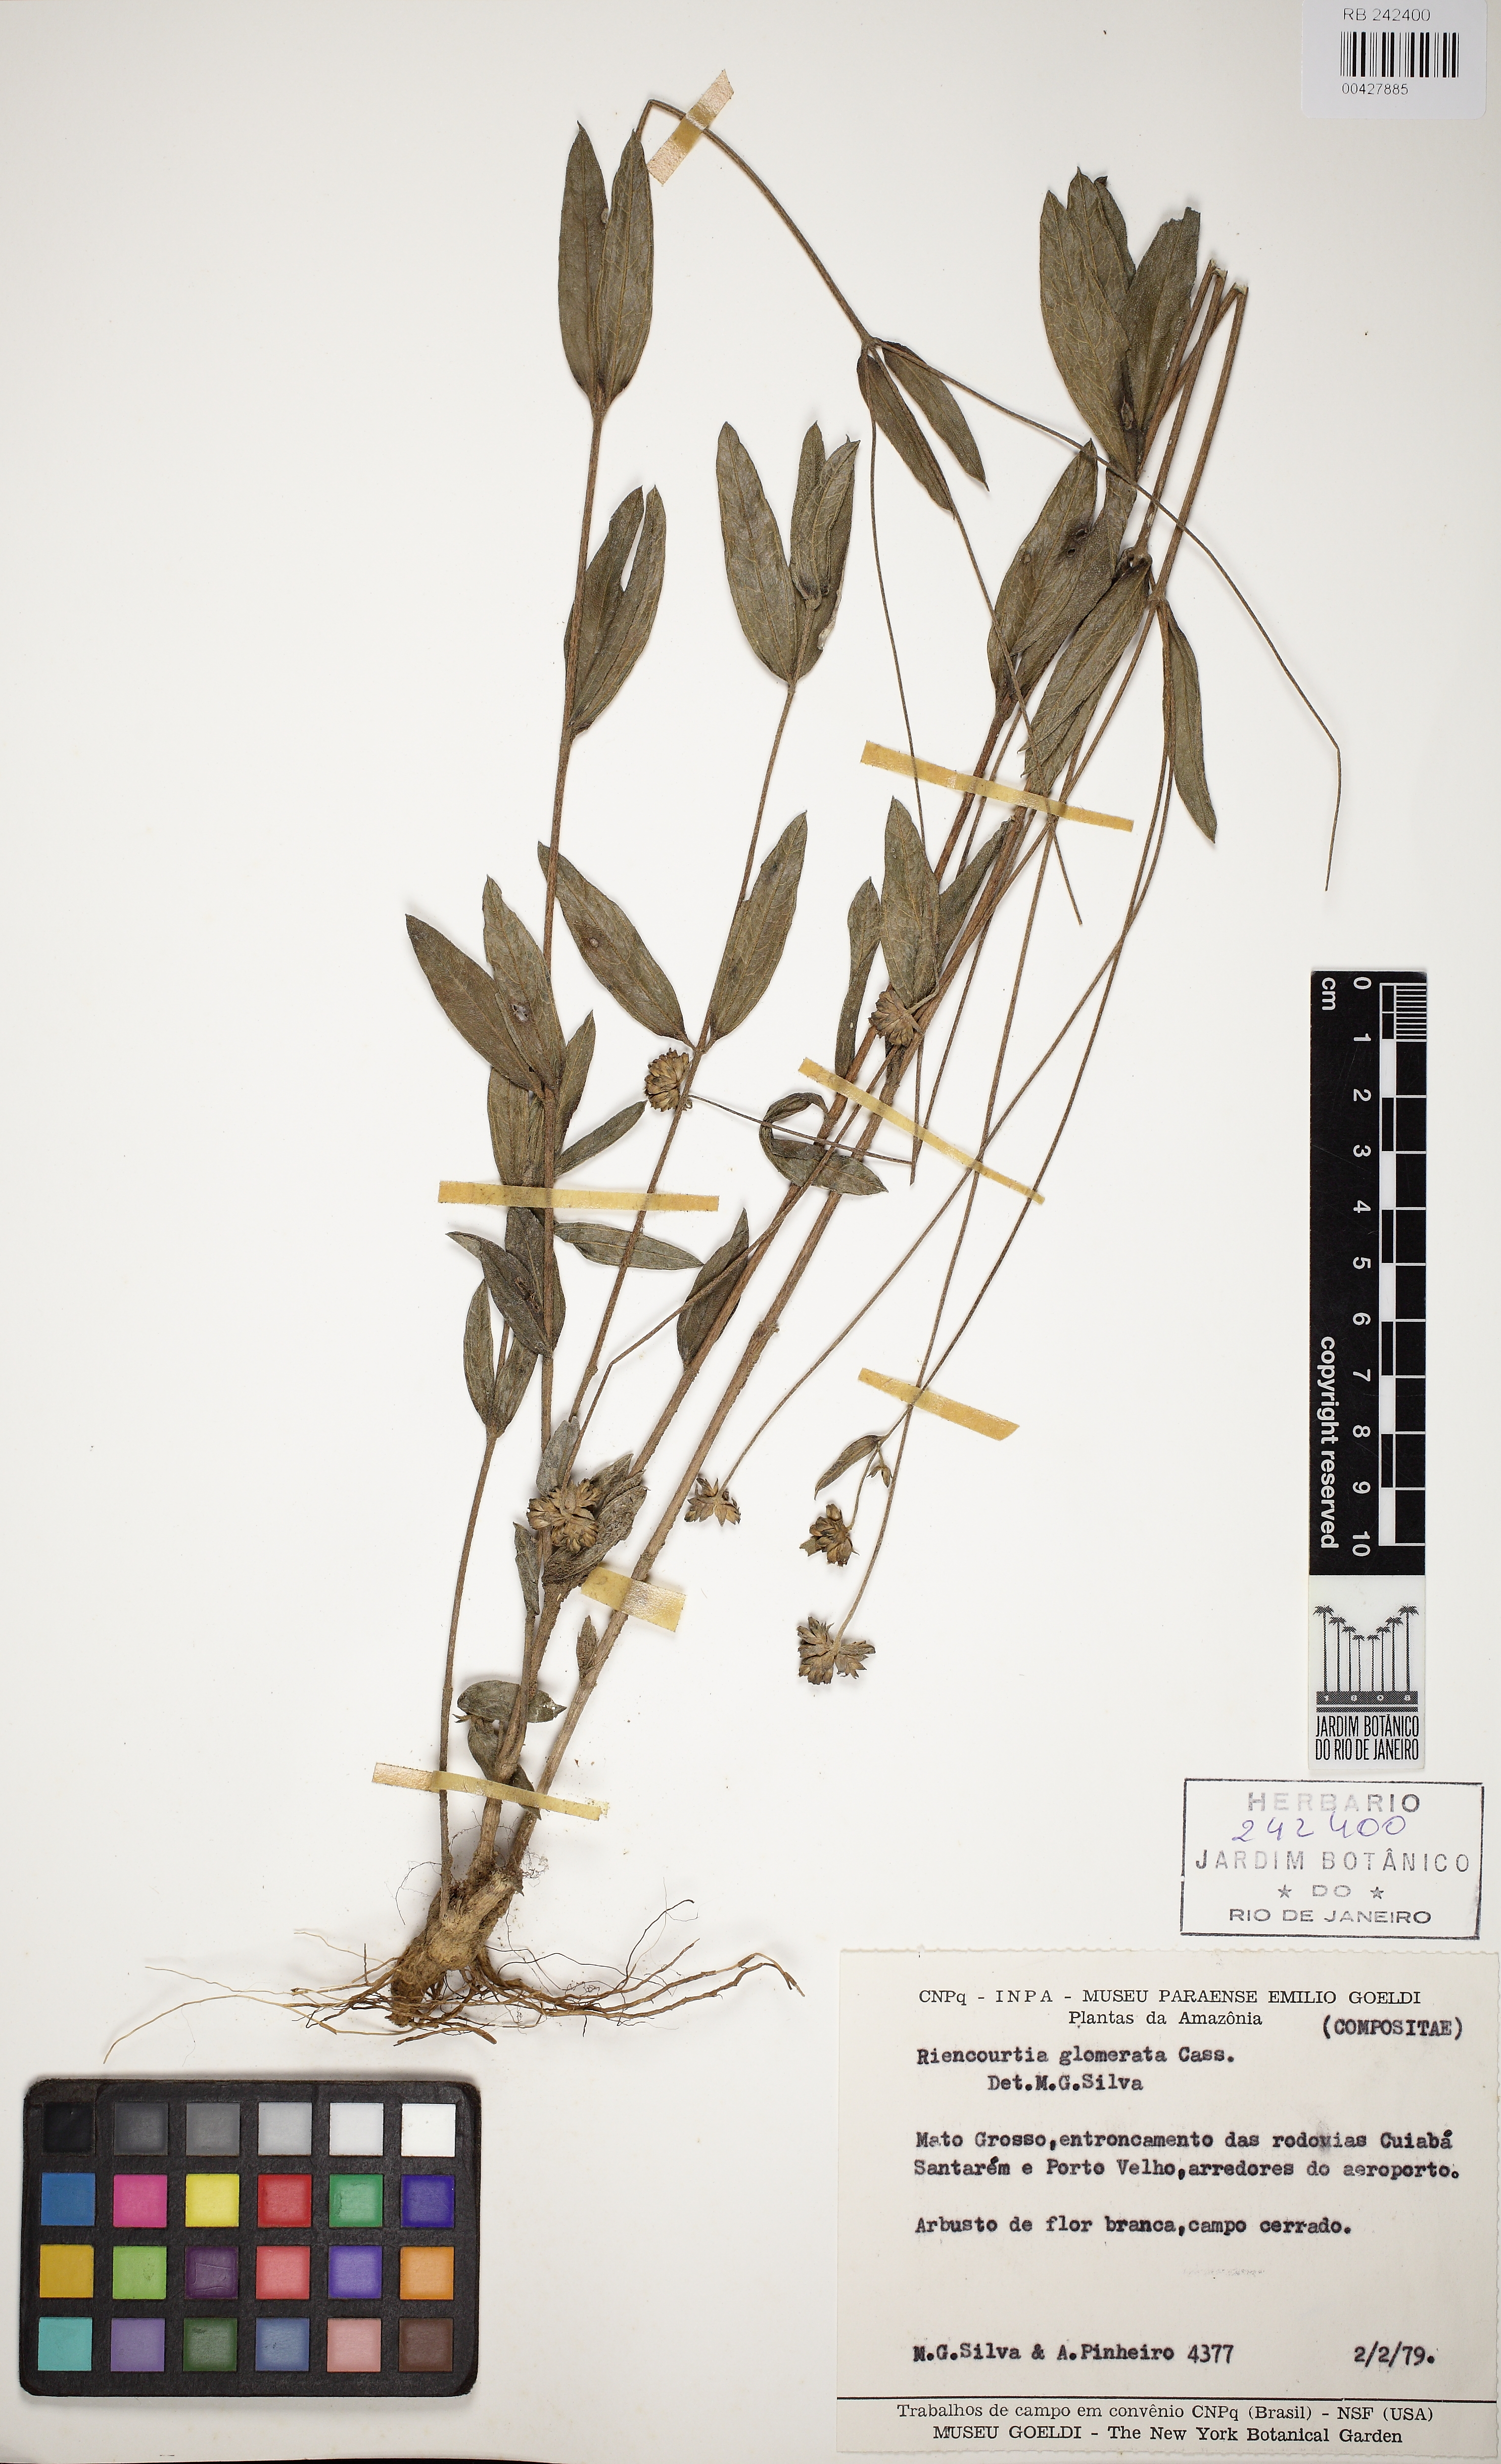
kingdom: Plantae
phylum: Tracheophyta
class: Magnoliopsida
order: Asterales
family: Asteraceae
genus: Riencourtia
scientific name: Riencourtia glomerata
